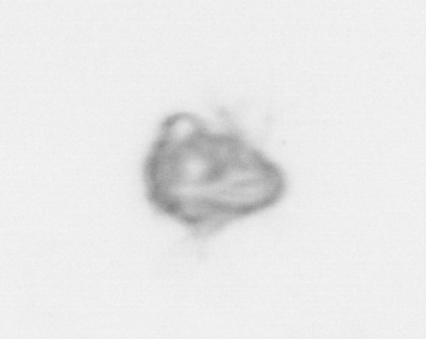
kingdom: Animalia
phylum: Arthropoda
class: Malacostraca
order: Decapoda
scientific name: Decapoda
